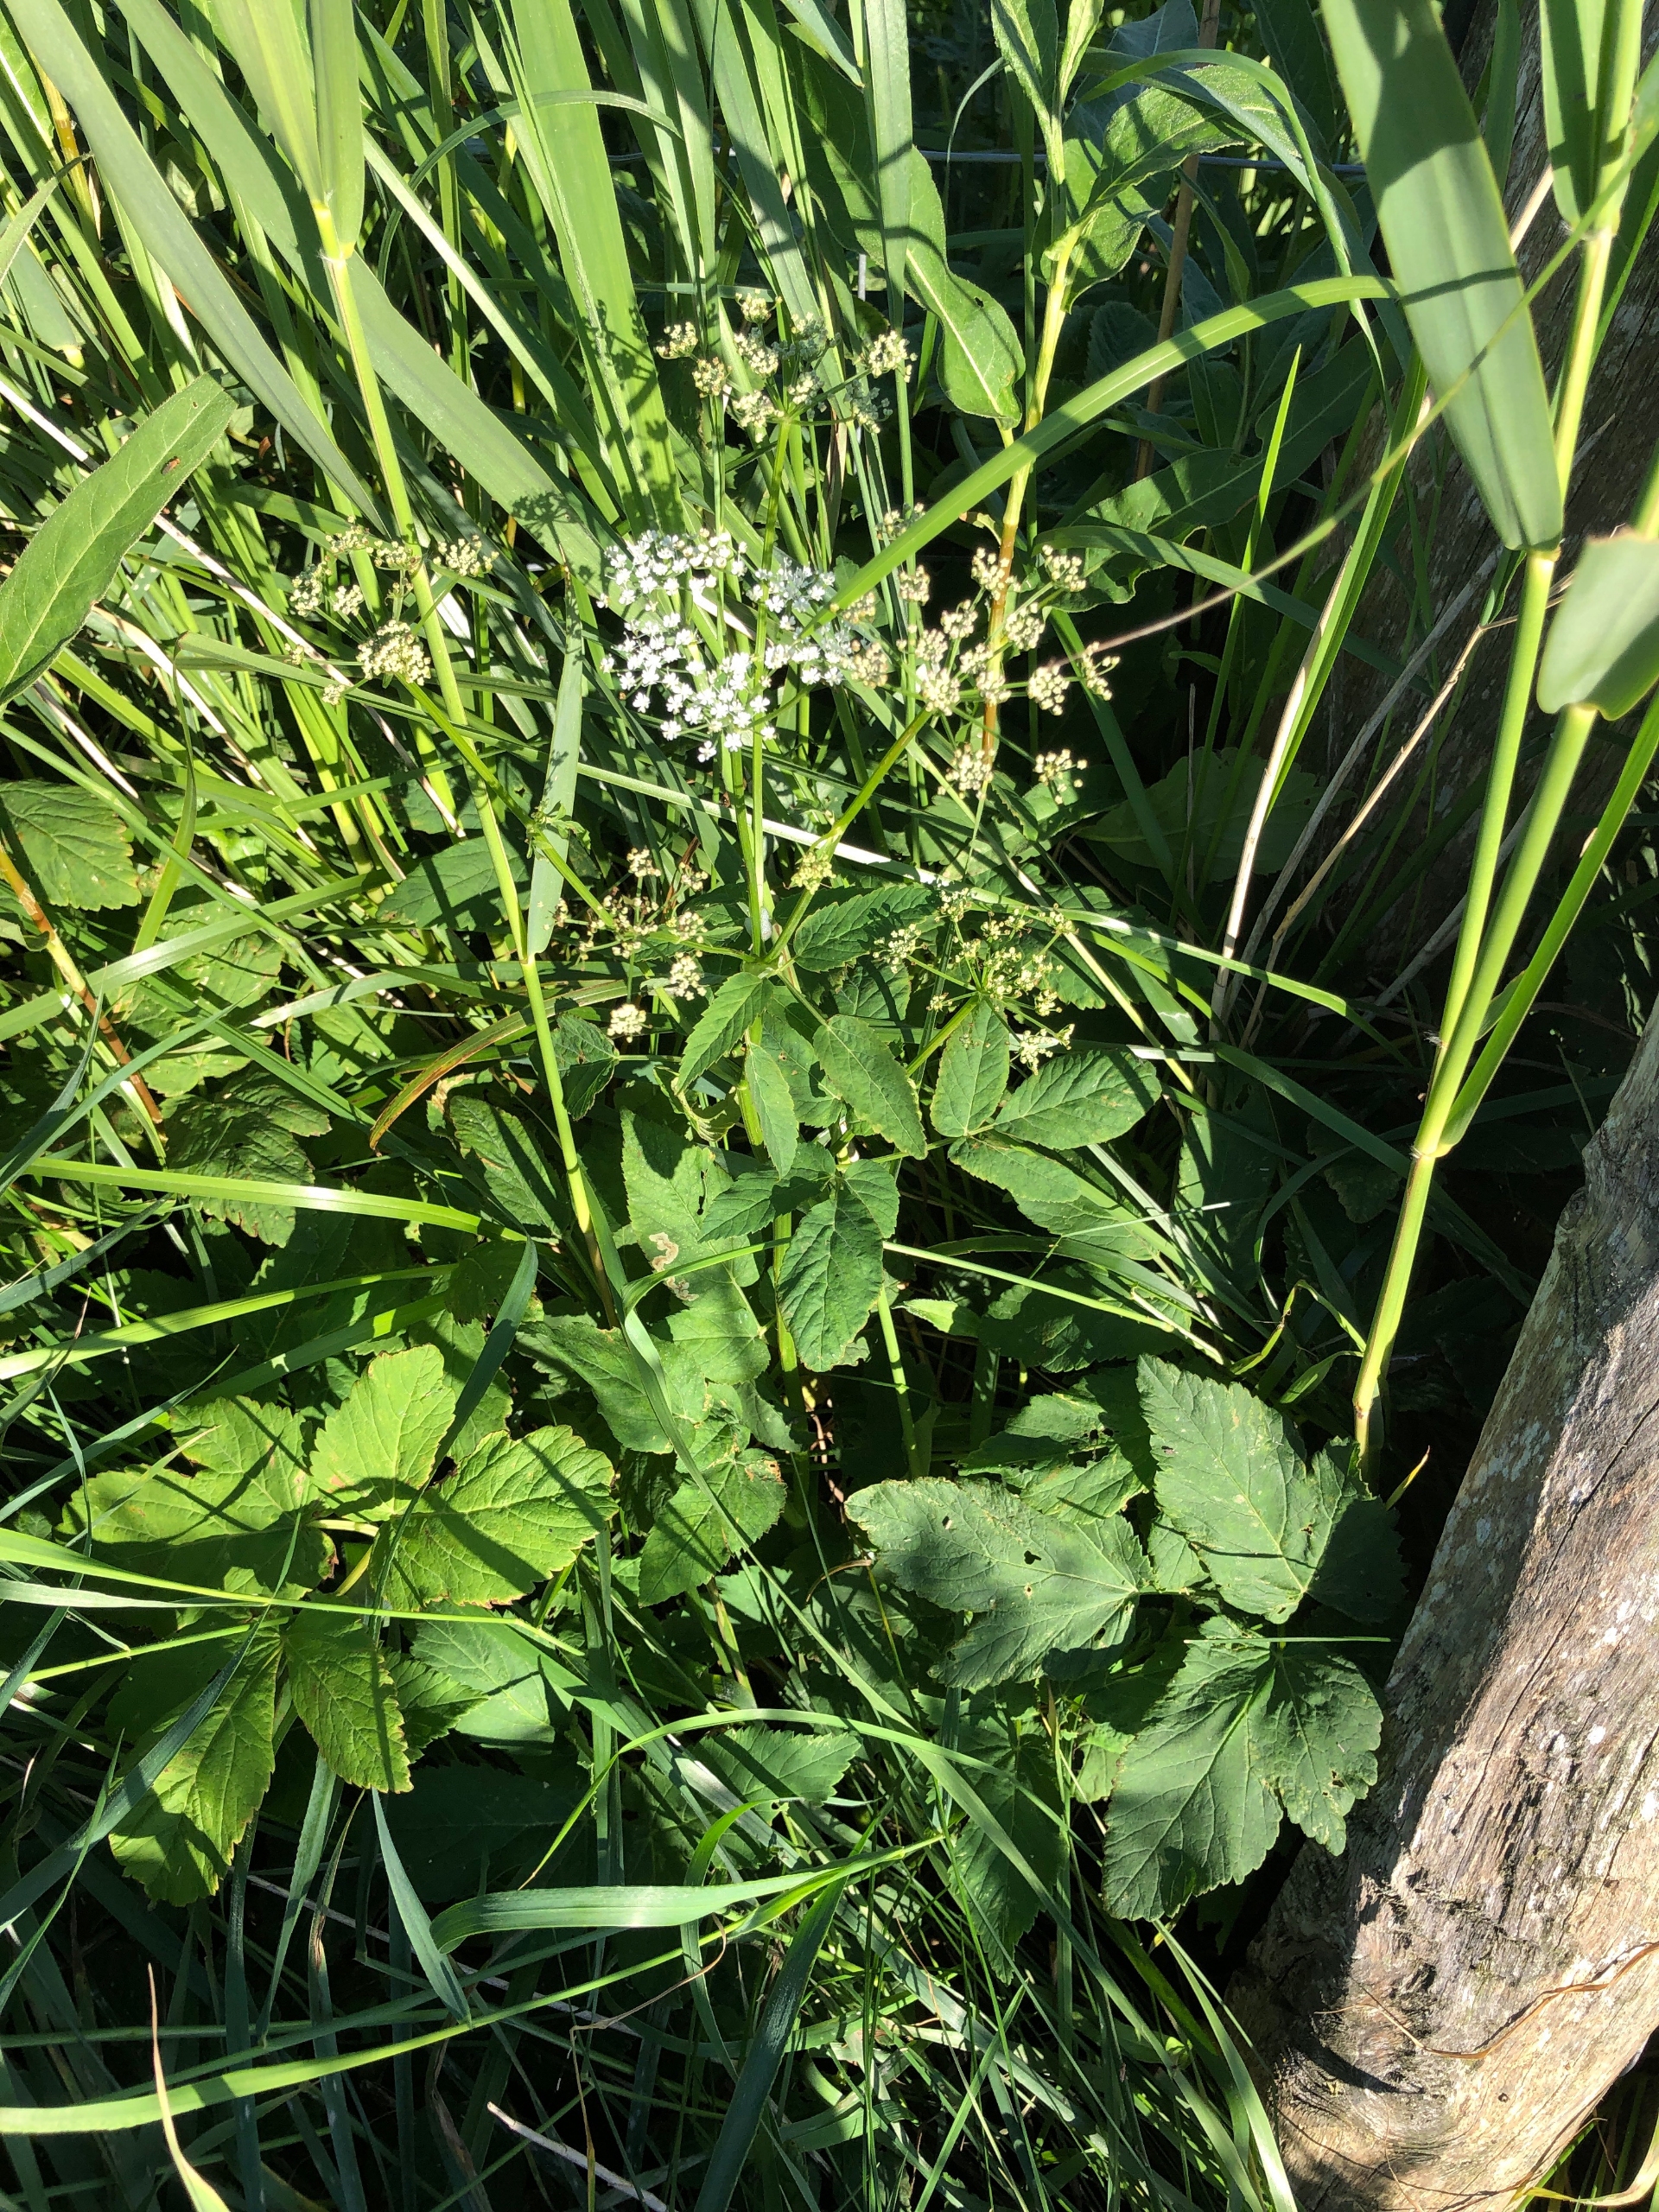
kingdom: Plantae
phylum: Tracheophyta
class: Magnoliopsida
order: Apiales
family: Apiaceae
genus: Aegopodium
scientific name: Aegopodium podagraria
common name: Skvalderkål
